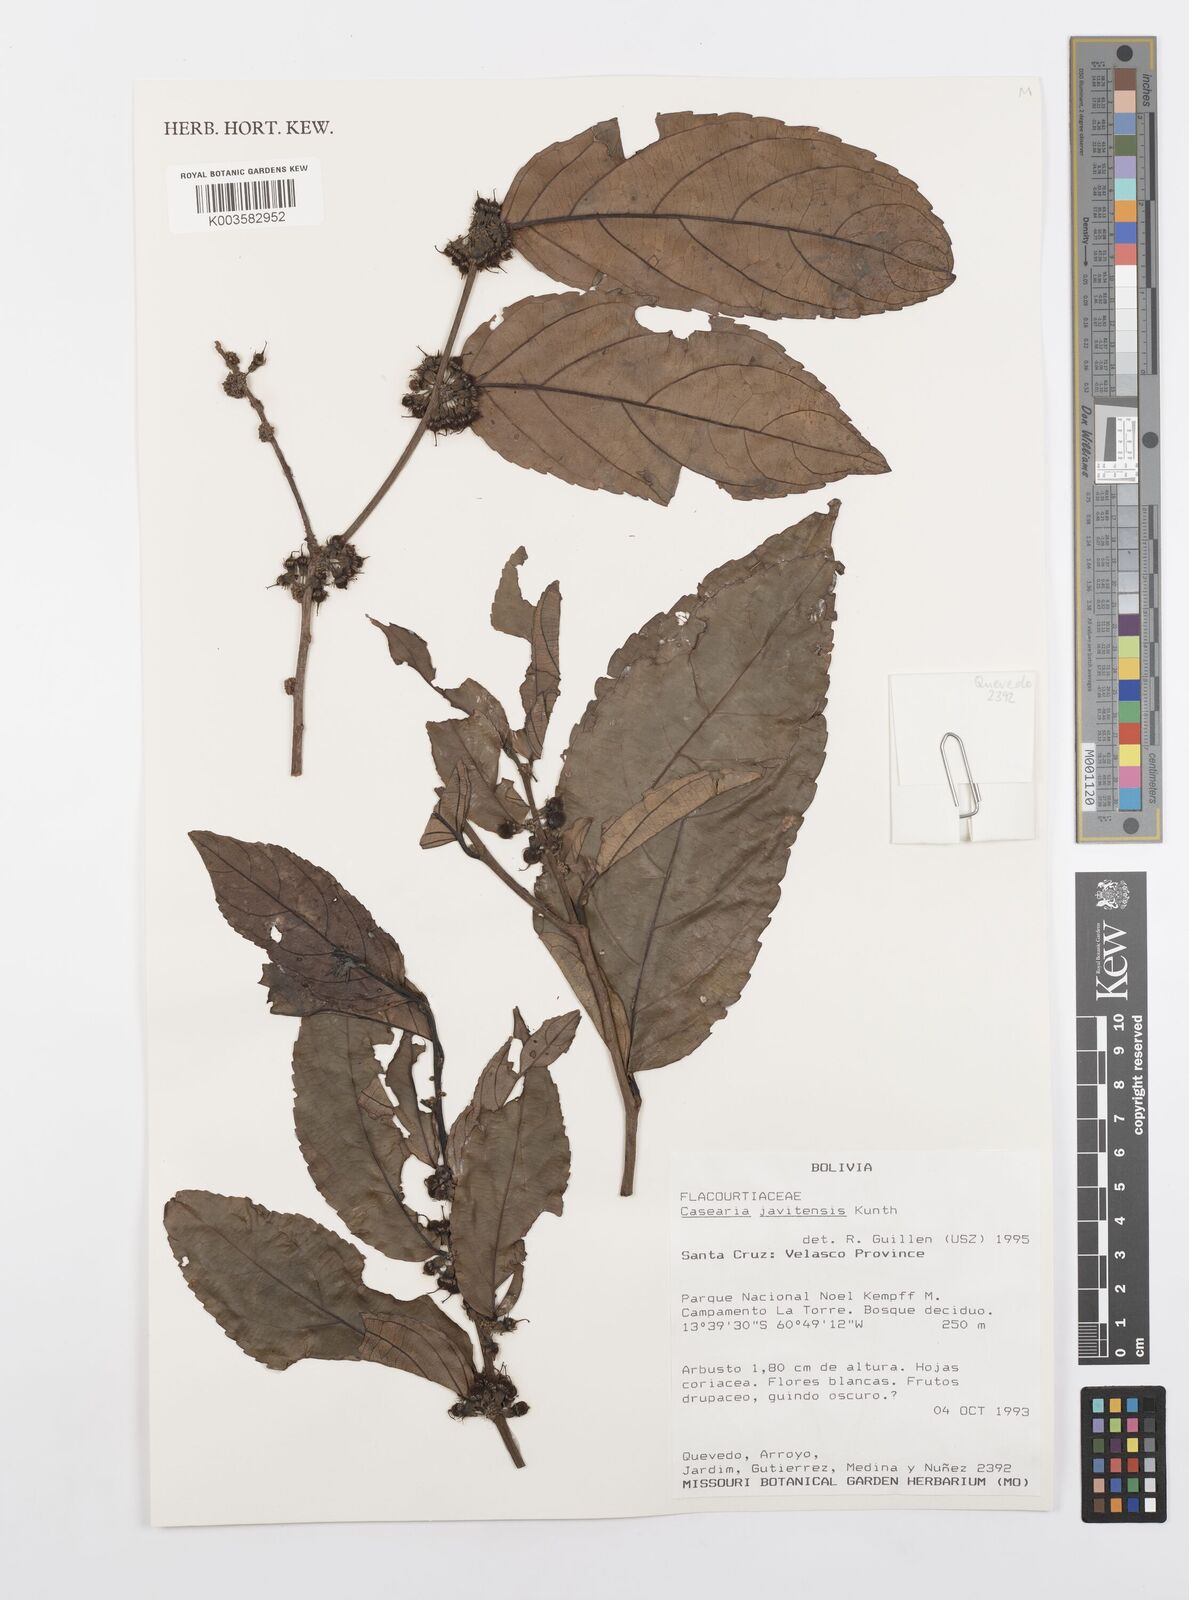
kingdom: Plantae
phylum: Tracheophyta
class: Magnoliopsida
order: Malpighiales
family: Salicaceae
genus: Piparea
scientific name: Piparea multiflora
